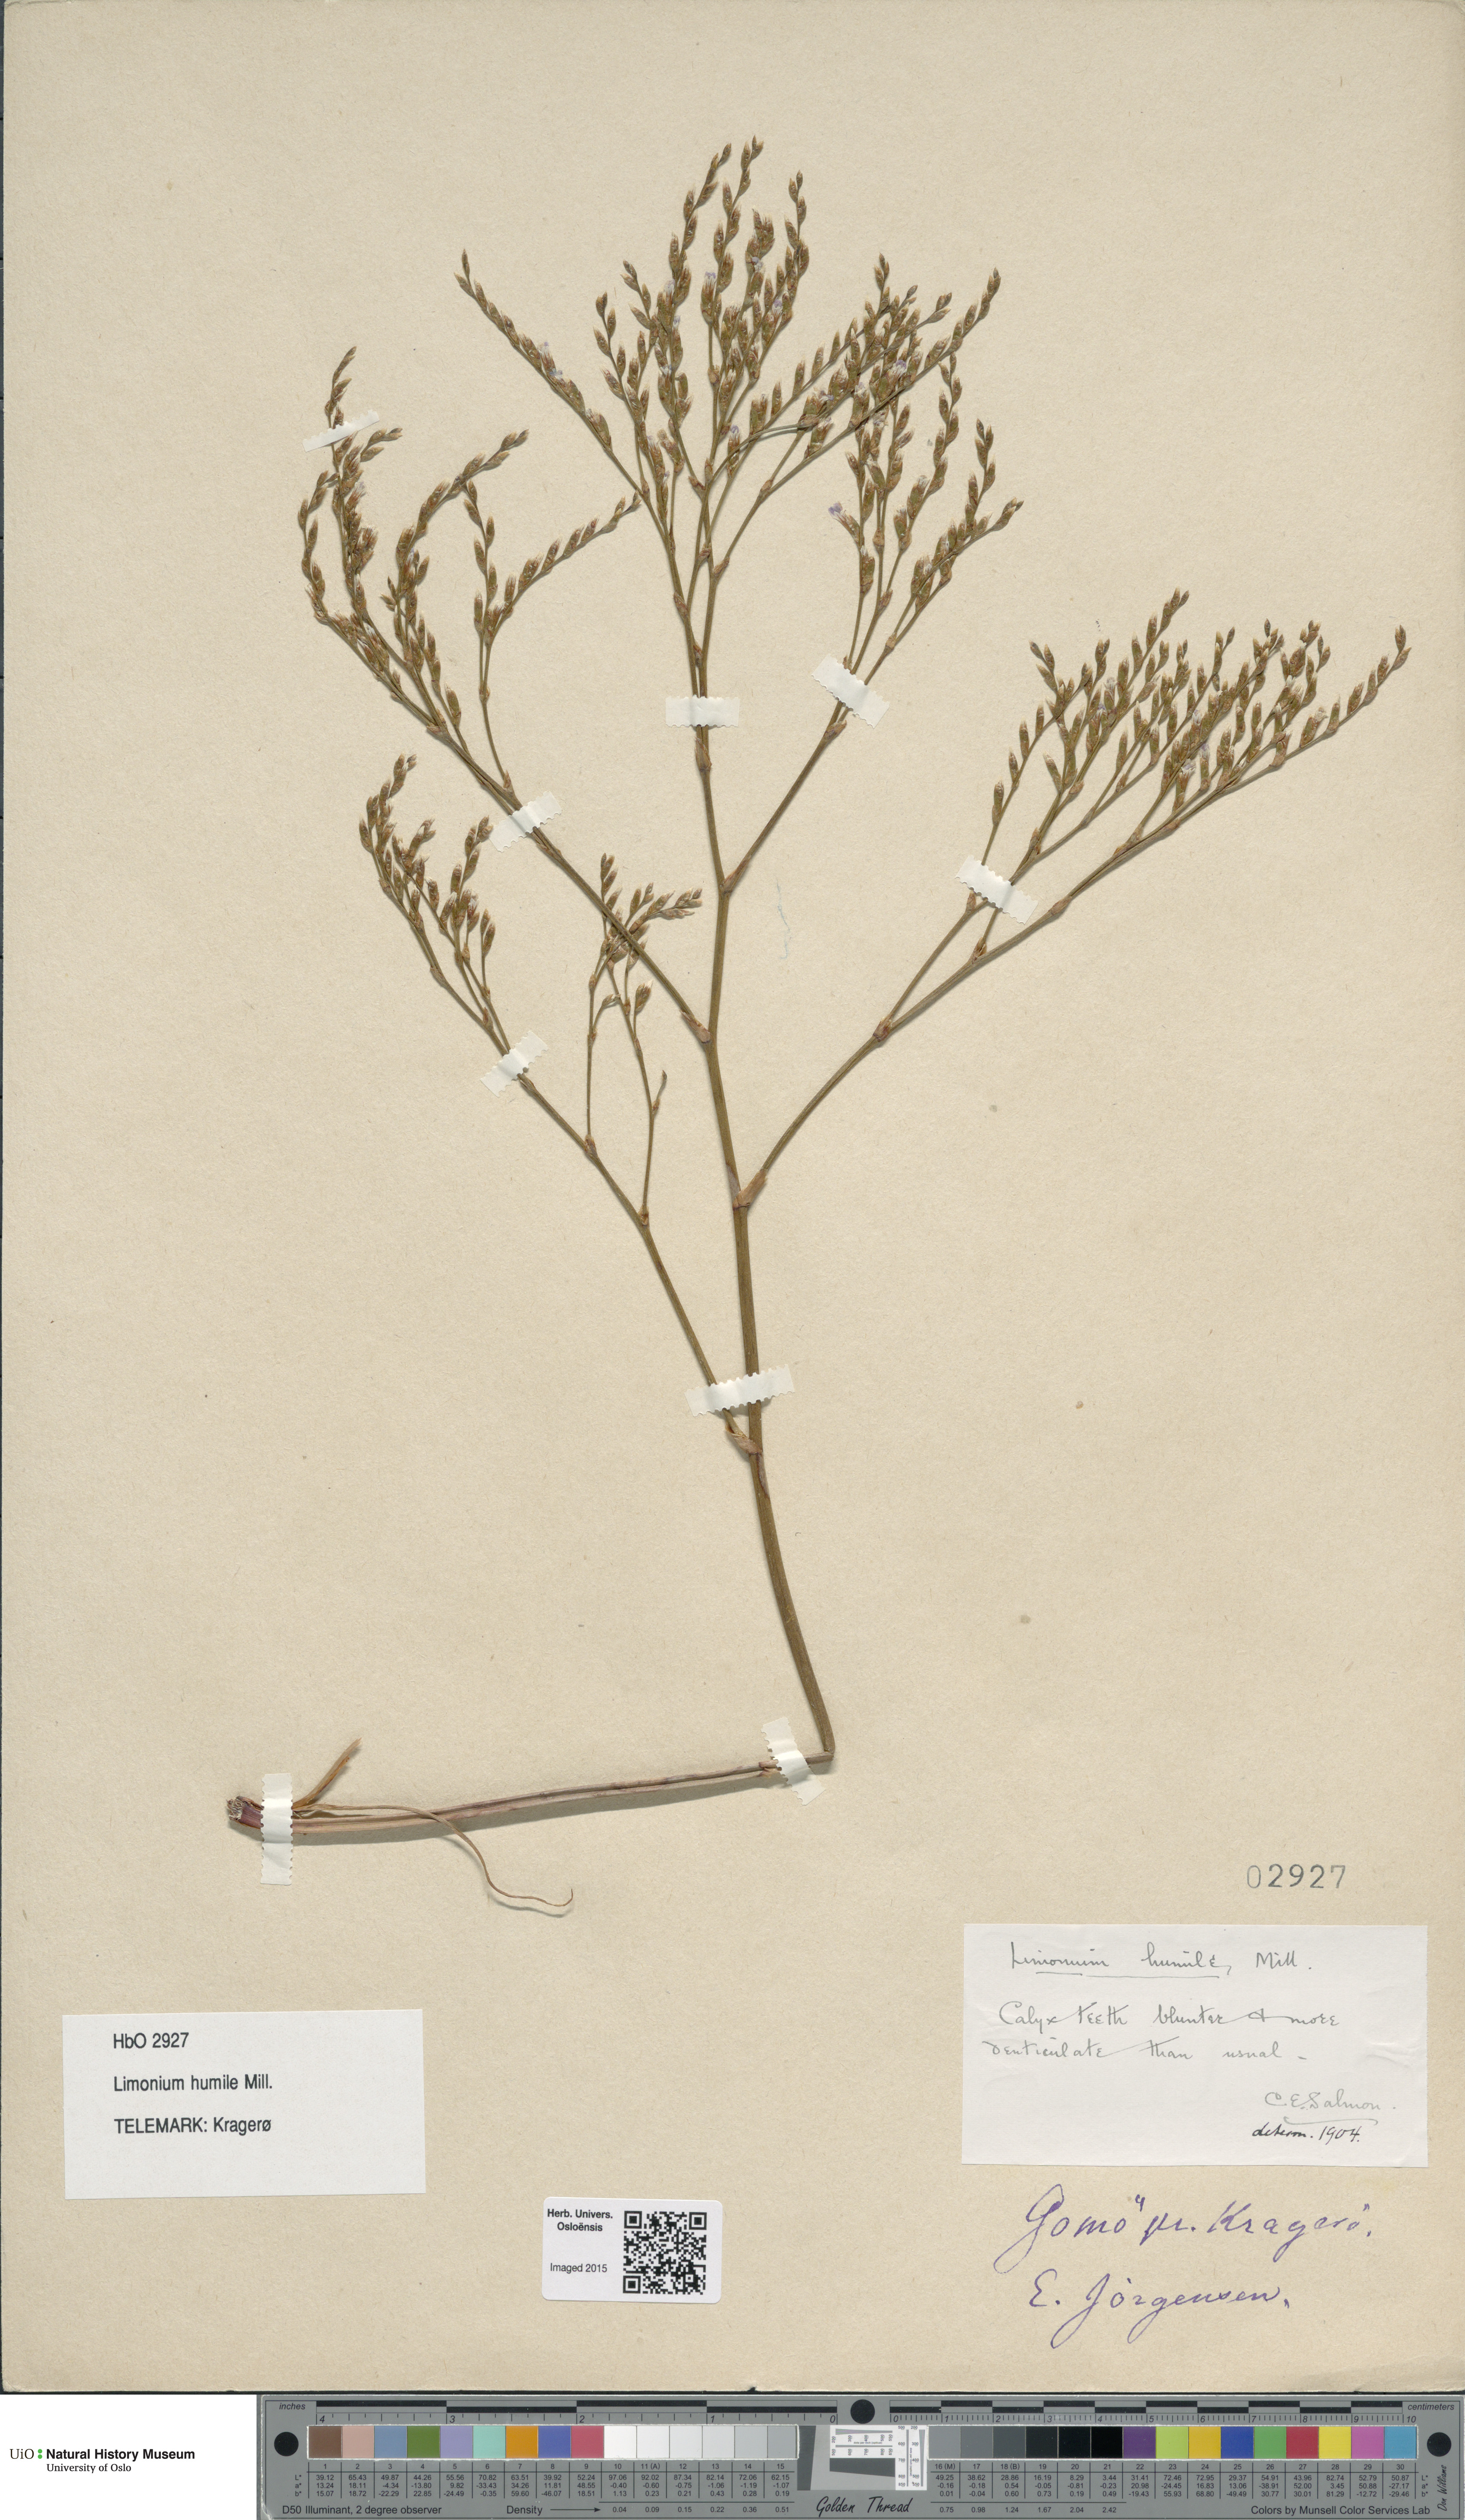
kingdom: Plantae
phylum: Tracheophyta
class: Magnoliopsida
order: Caryophyllales
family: Plumbaginaceae
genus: Limonium
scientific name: Limonium humile
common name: Lax-flowered sea-lavender
